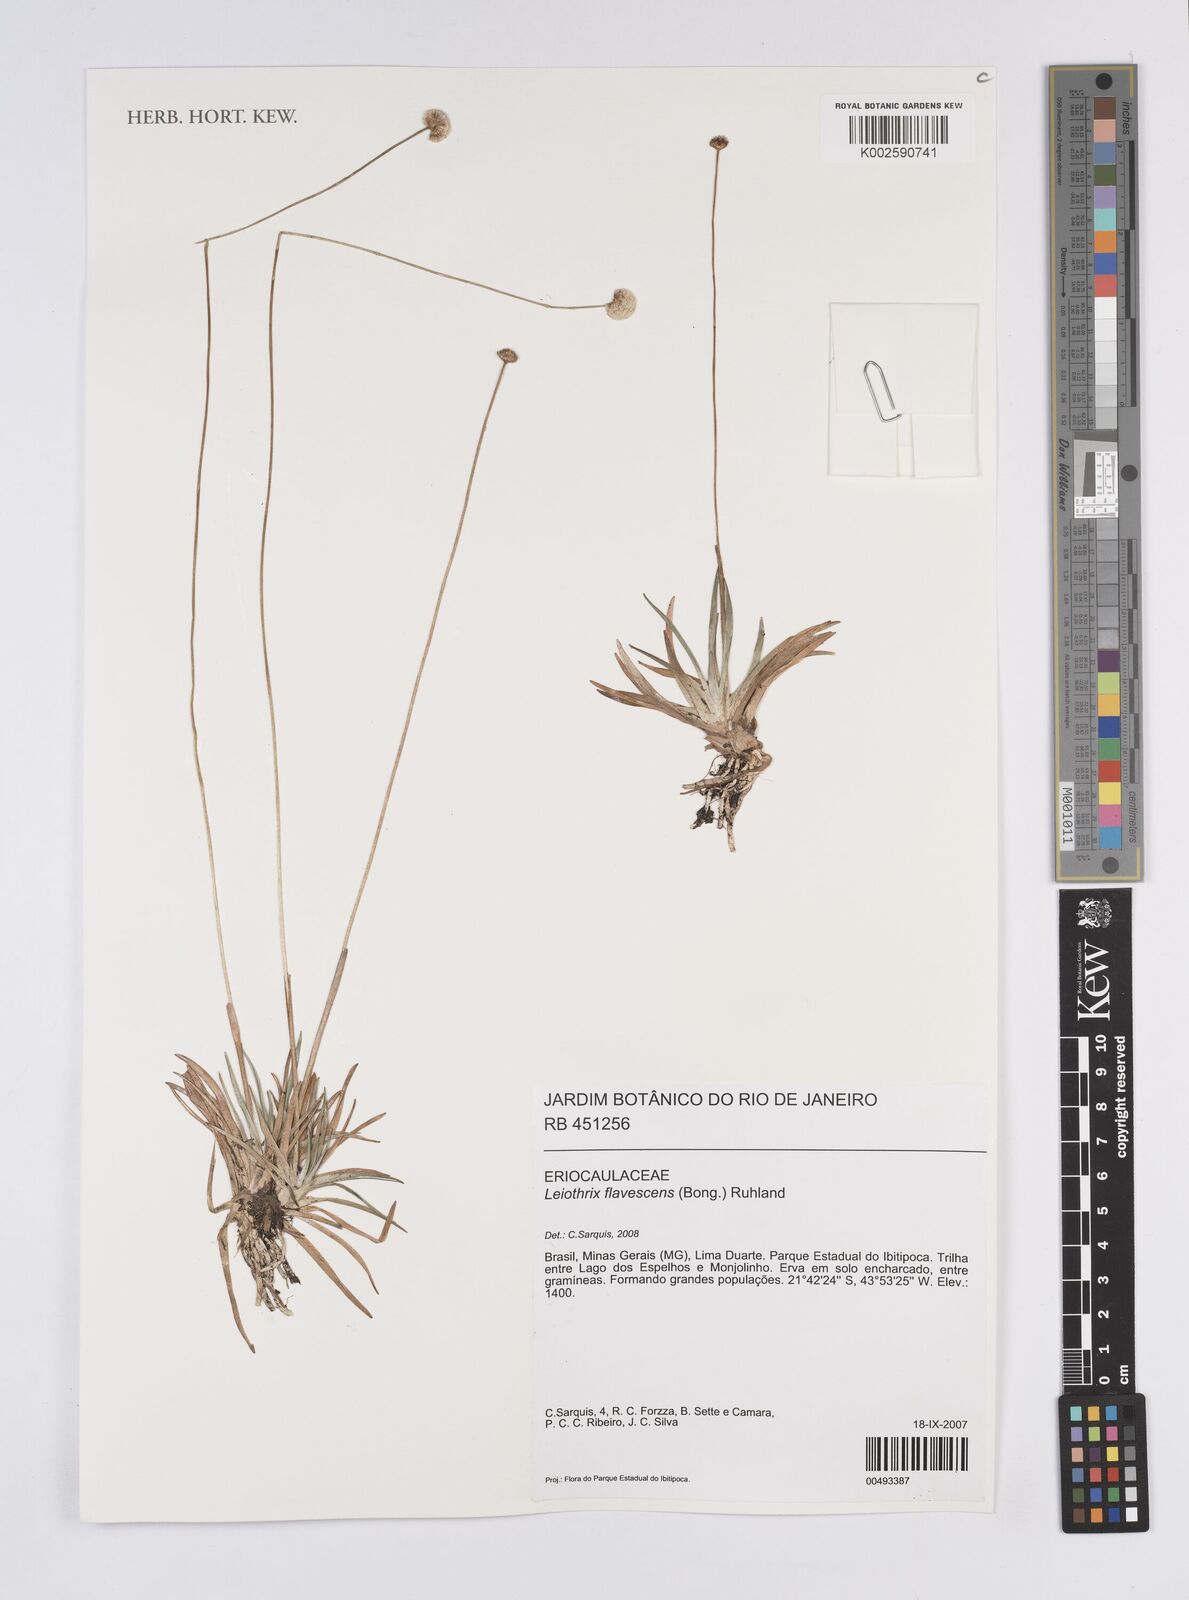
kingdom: Plantae
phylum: Tracheophyta
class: Liliopsida
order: Poales
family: Eriocaulaceae
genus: Leiothrix
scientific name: Leiothrix flavescens
